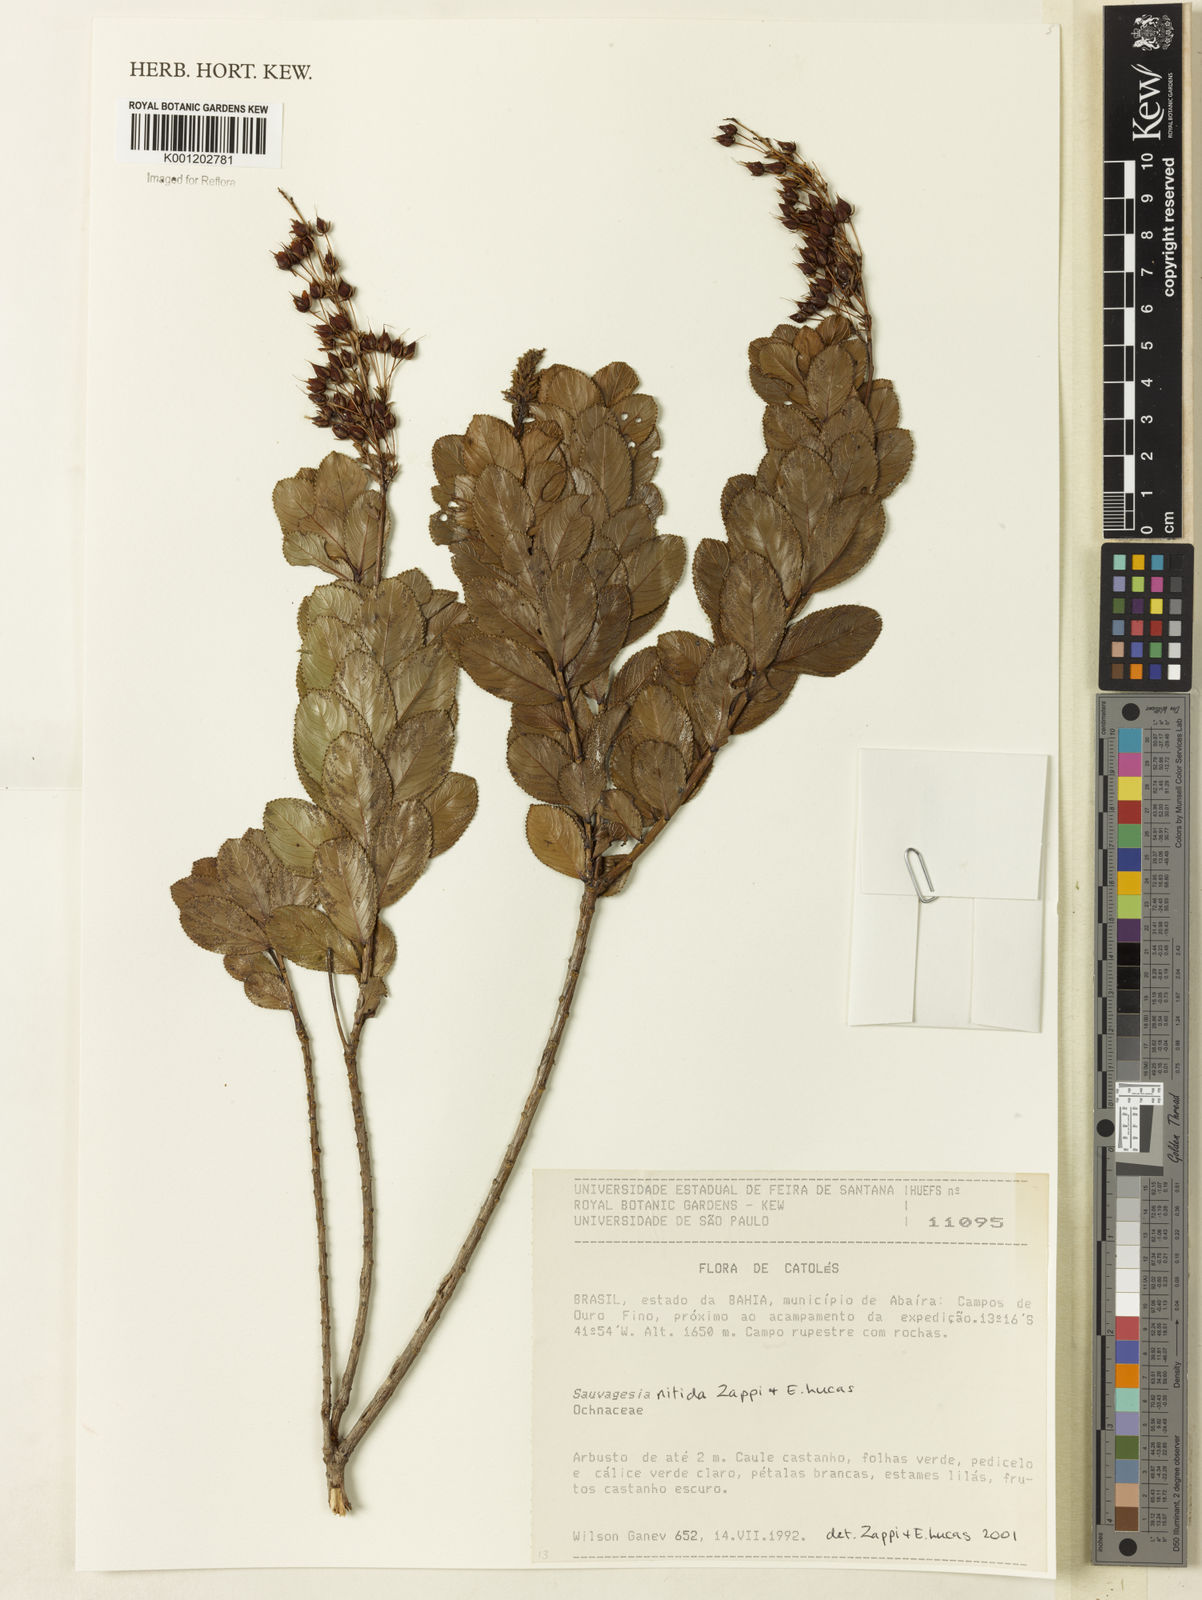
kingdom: Plantae
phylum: Tracheophyta
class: Magnoliopsida
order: Malpighiales
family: Ochnaceae
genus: Sauvagesia
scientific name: Sauvagesia nitida
